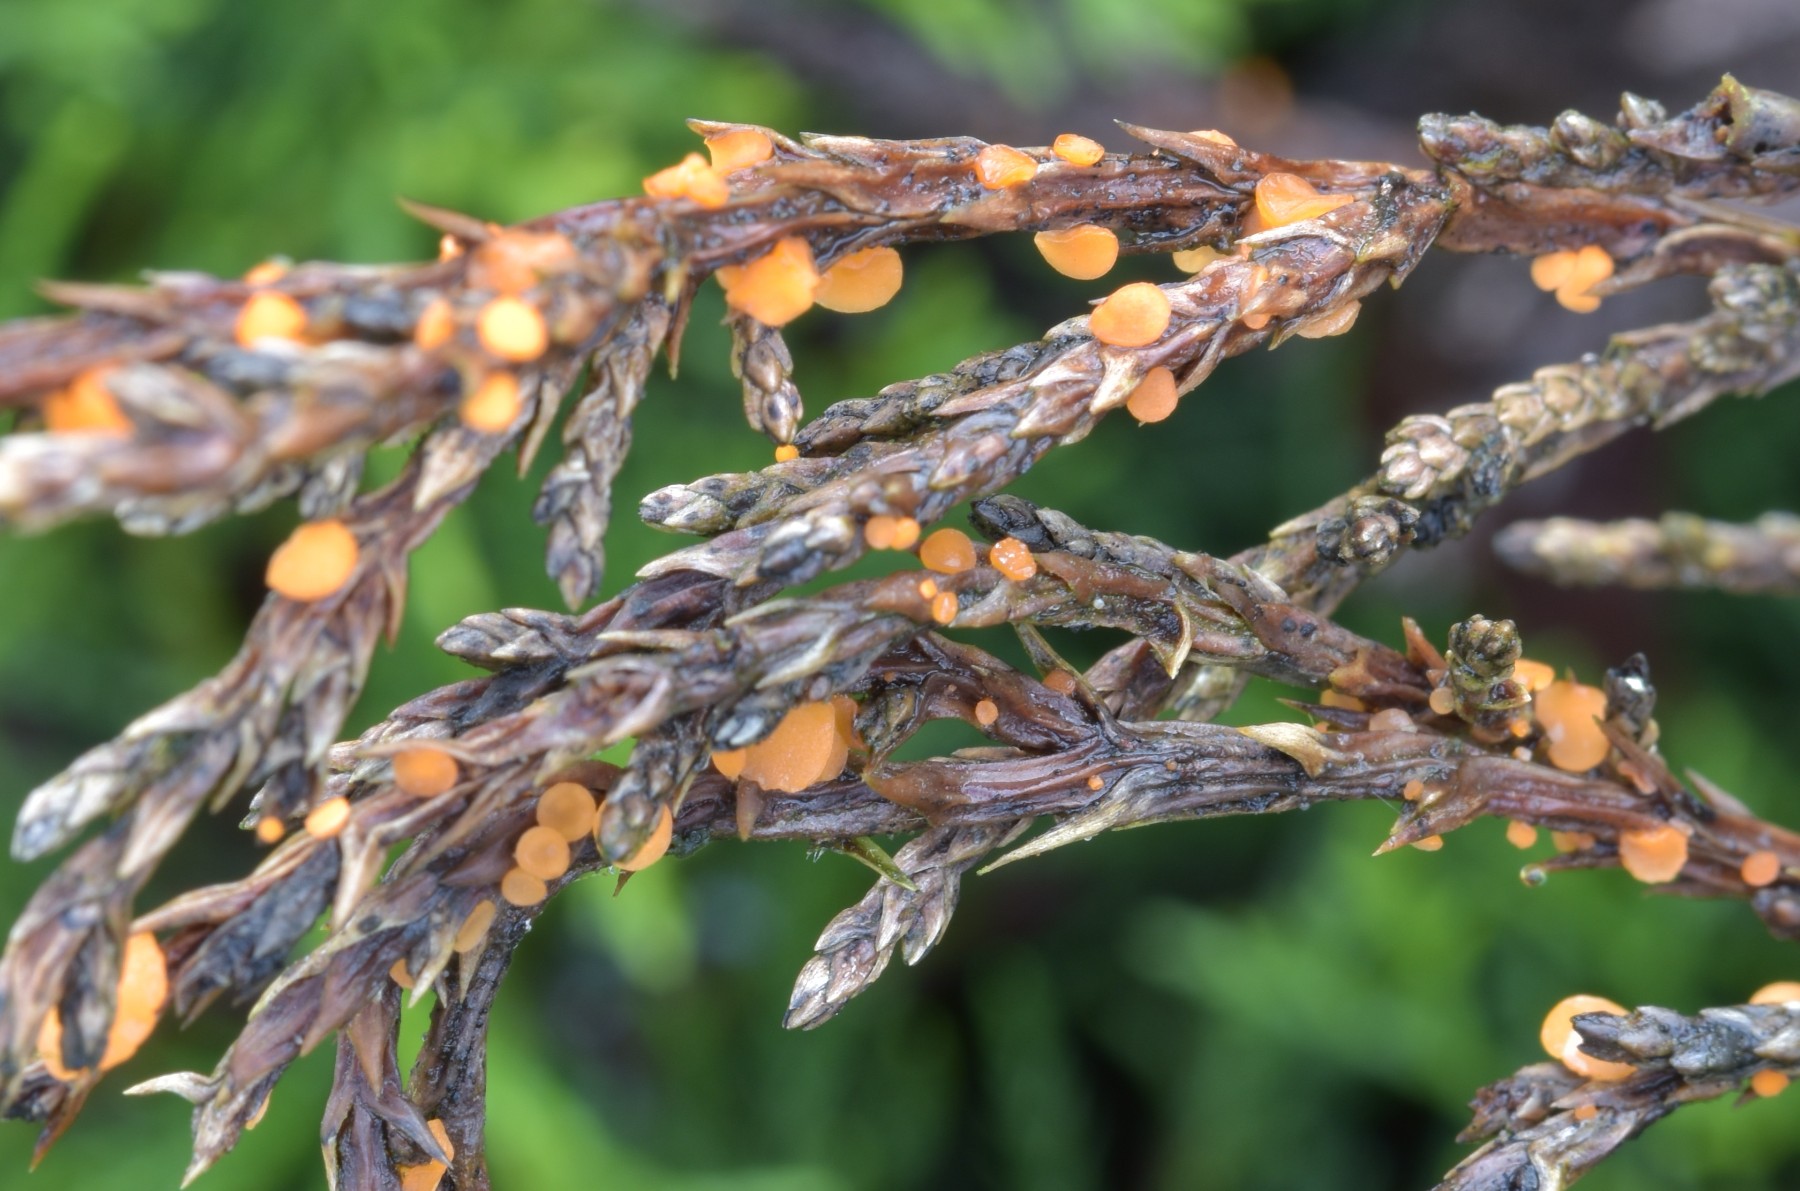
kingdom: Fungi
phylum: Ascomycota
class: Pezizomycetes
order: Pezizales
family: Sarcoscyphaceae
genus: Pithya
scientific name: Pithya cupressina
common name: lille dukatbæger
